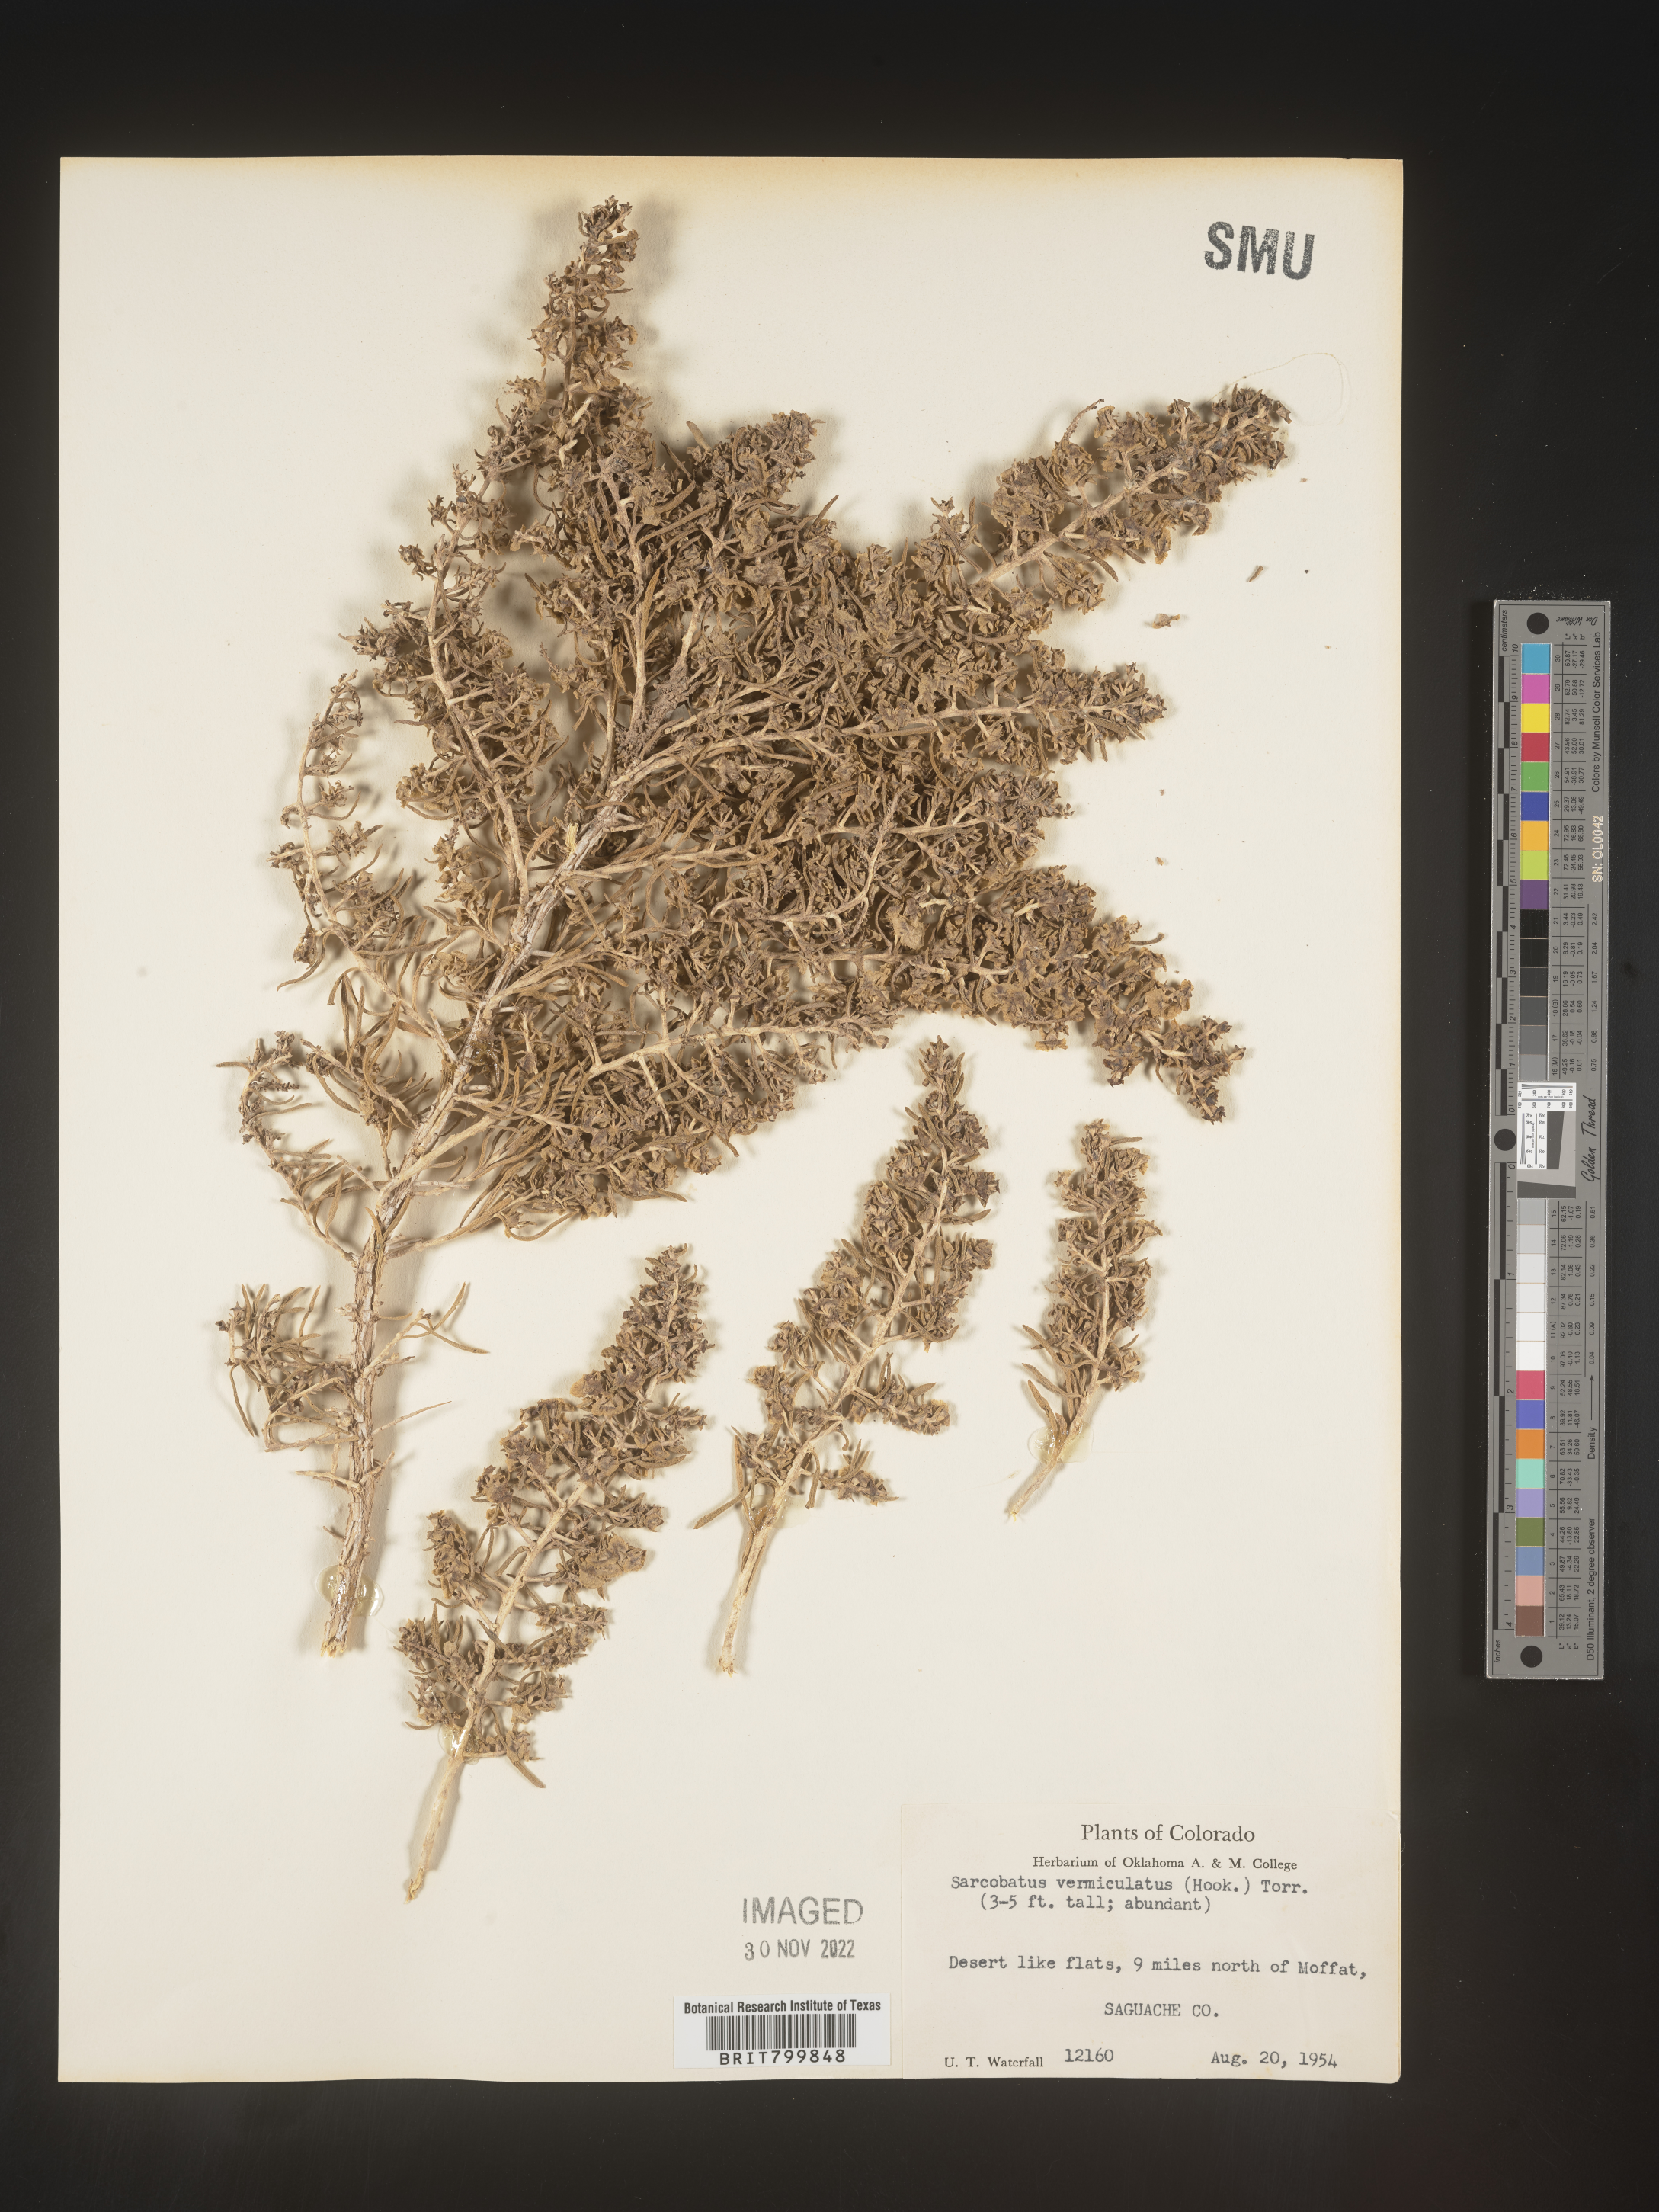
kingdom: Plantae
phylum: Tracheophyta
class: Magnoliopsida
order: Caryophyllales
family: Sarcobataceae
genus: Sarcobatus
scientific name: Sarcobatus vermiculatus
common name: Greasewood
